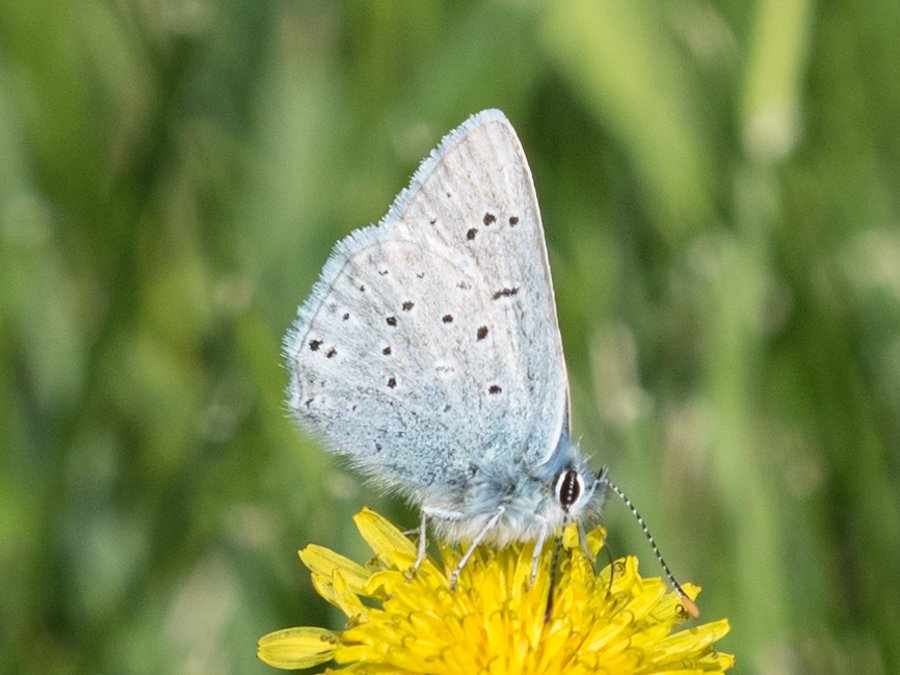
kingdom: Animalia
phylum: Arthropoda
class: Insecta
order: Lepidoptera
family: Lycaenidae
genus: Plebejus
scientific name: Plebejus saepiolus
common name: Greenish Blue
